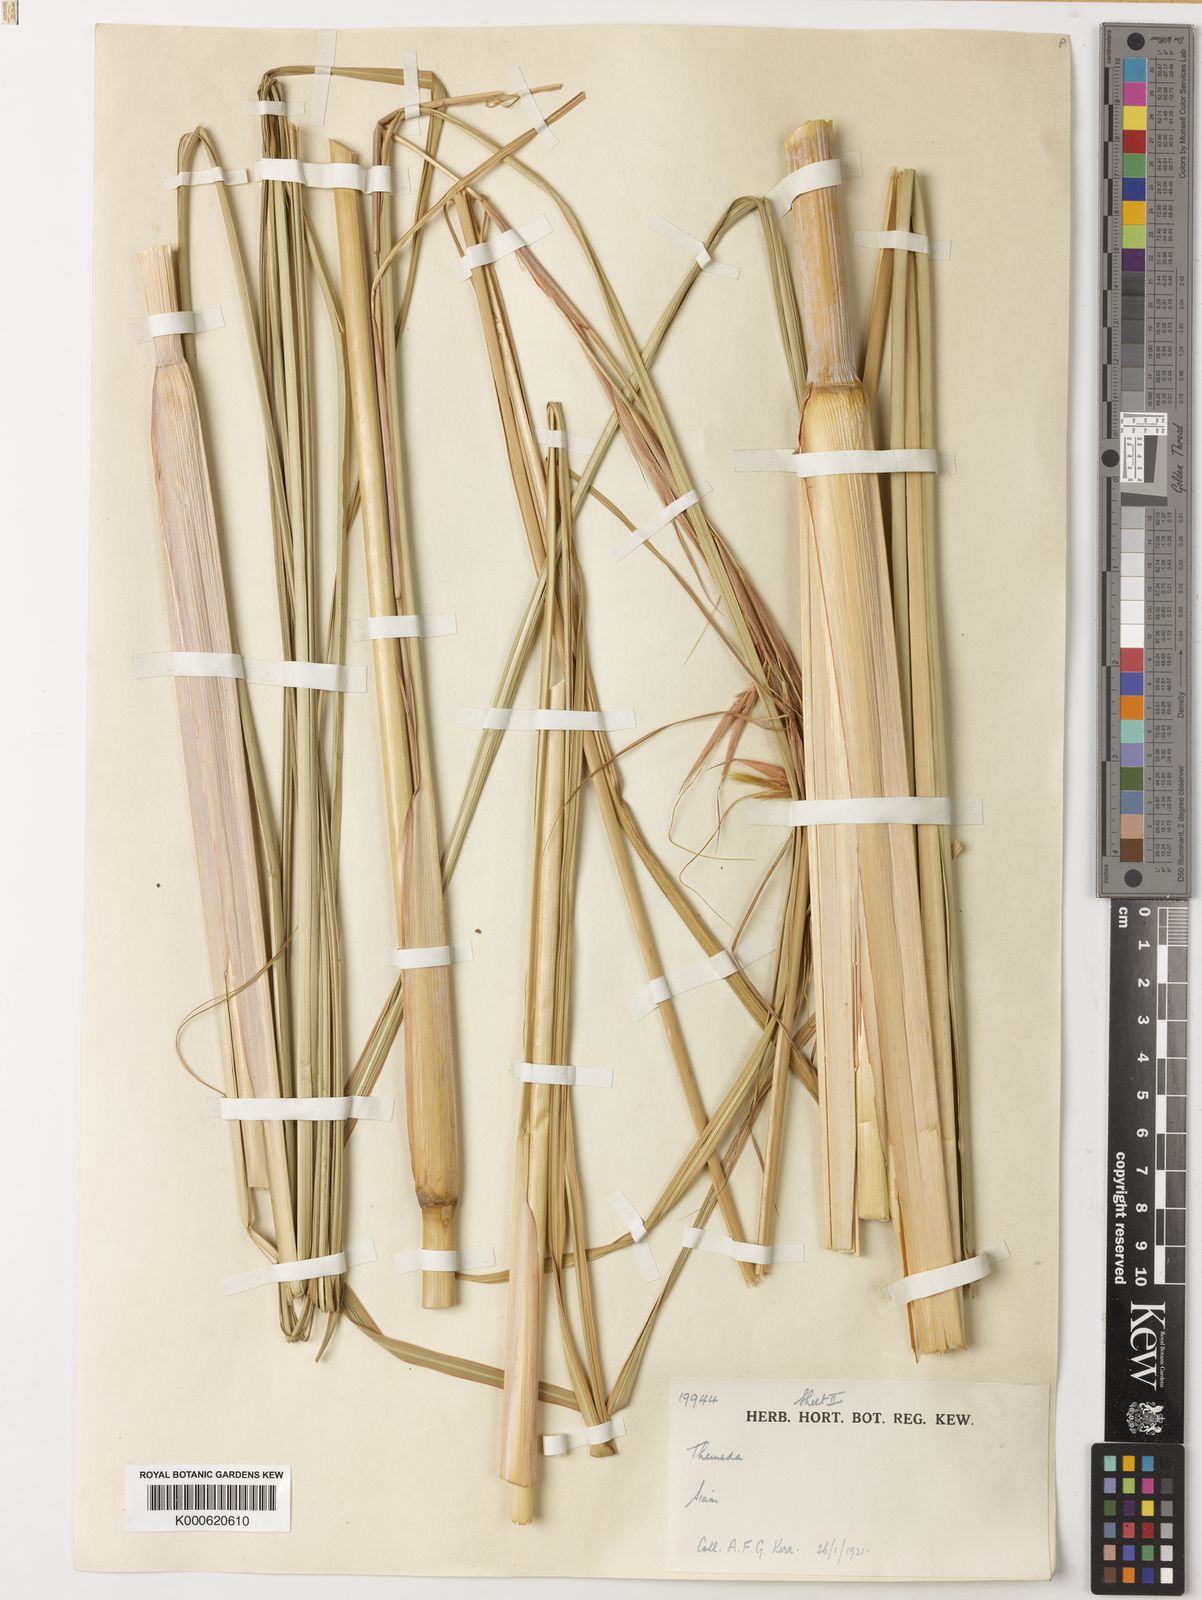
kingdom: Plantae
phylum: Tracheophyta
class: Liliopsida
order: Poales
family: Poaceae
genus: Themeda
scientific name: Themeda arundinacea
